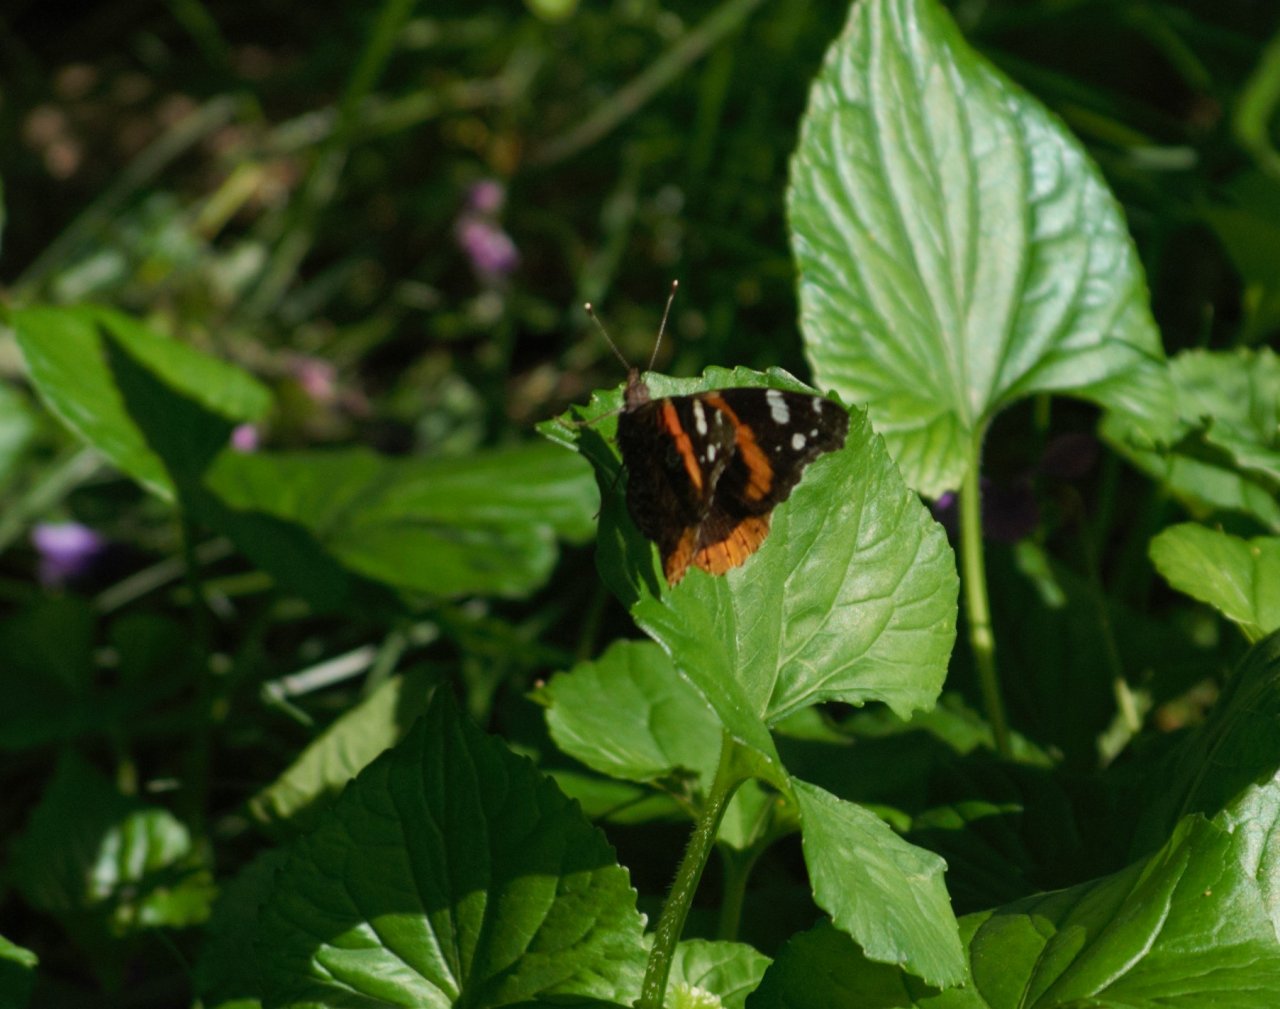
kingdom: Animalia
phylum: Arthropoda
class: Insecta
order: Lepidoptera
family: Nymphalidae
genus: Vanessa
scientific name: Vanessa atalanta
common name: Red Admiral
